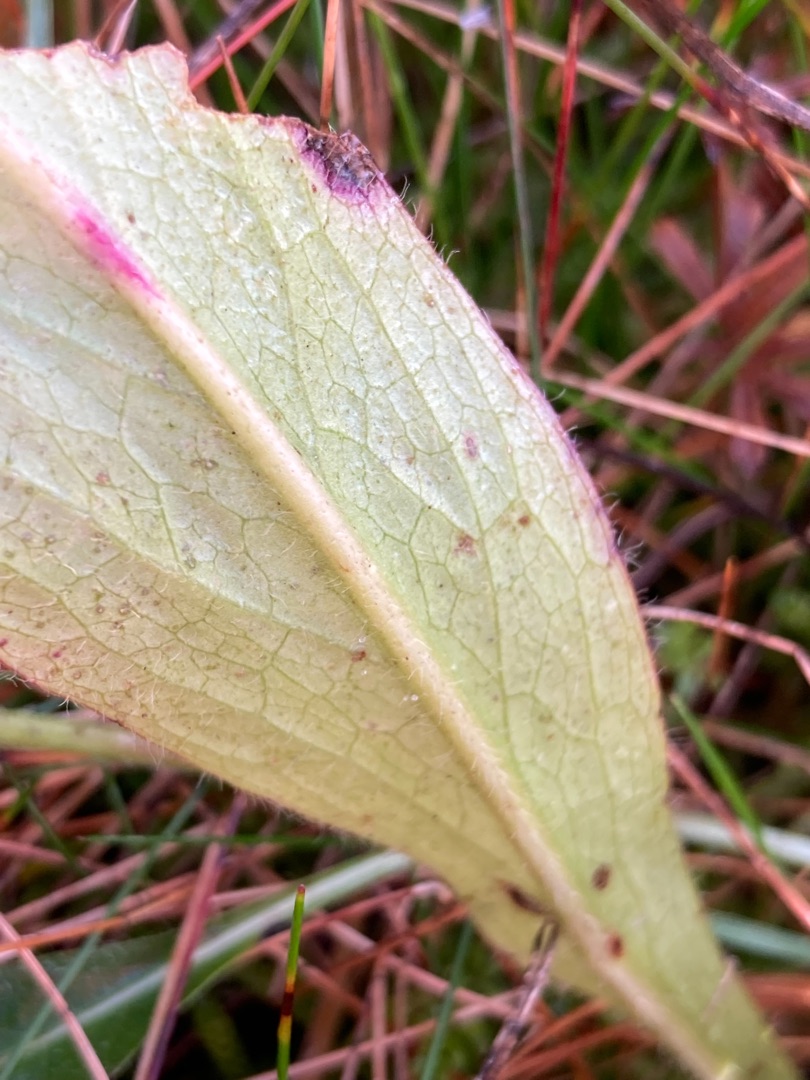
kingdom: Plantae
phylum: Tracheophyta
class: Magnoliopsida
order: Dipsacales
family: Caprifoliaceae
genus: Succisa
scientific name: Succisa pratensis
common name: Djævelsbid
